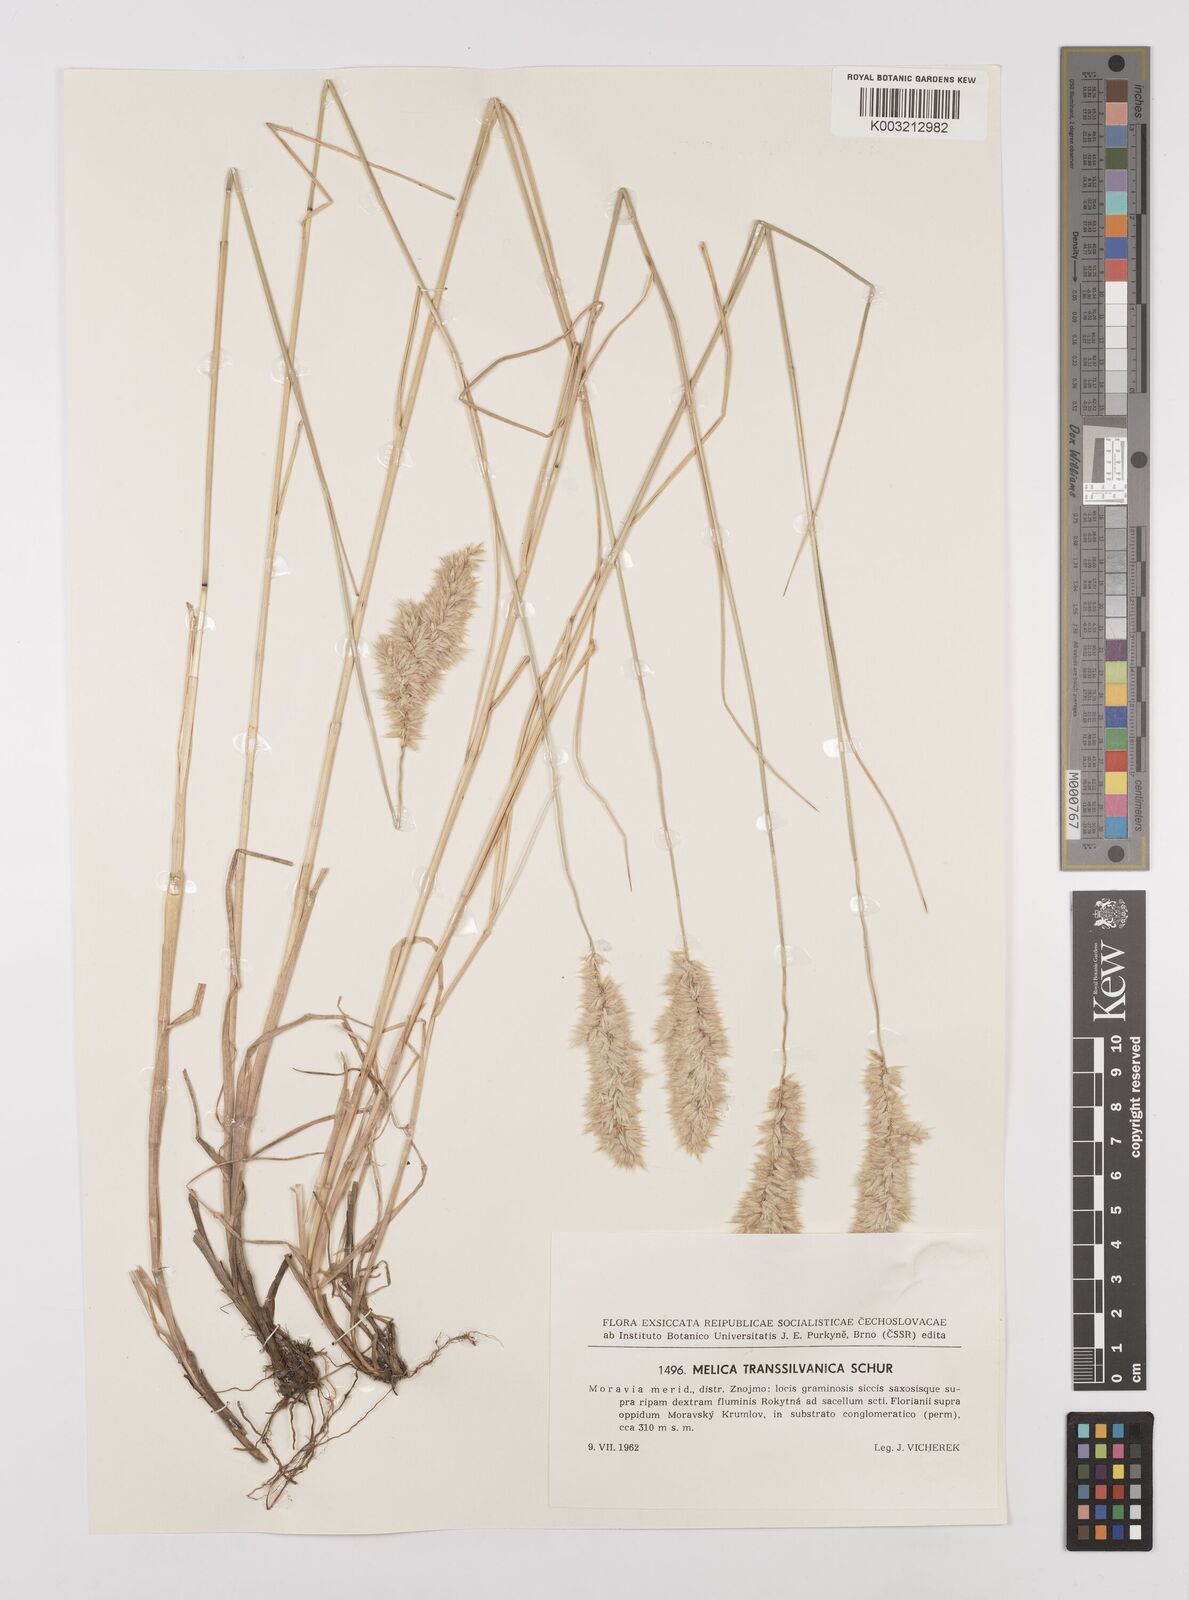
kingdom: Plantae
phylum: Tracheophyta
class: Liliopsida
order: Poales
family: Poaceae
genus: Melica
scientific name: Melica transsilvanica
